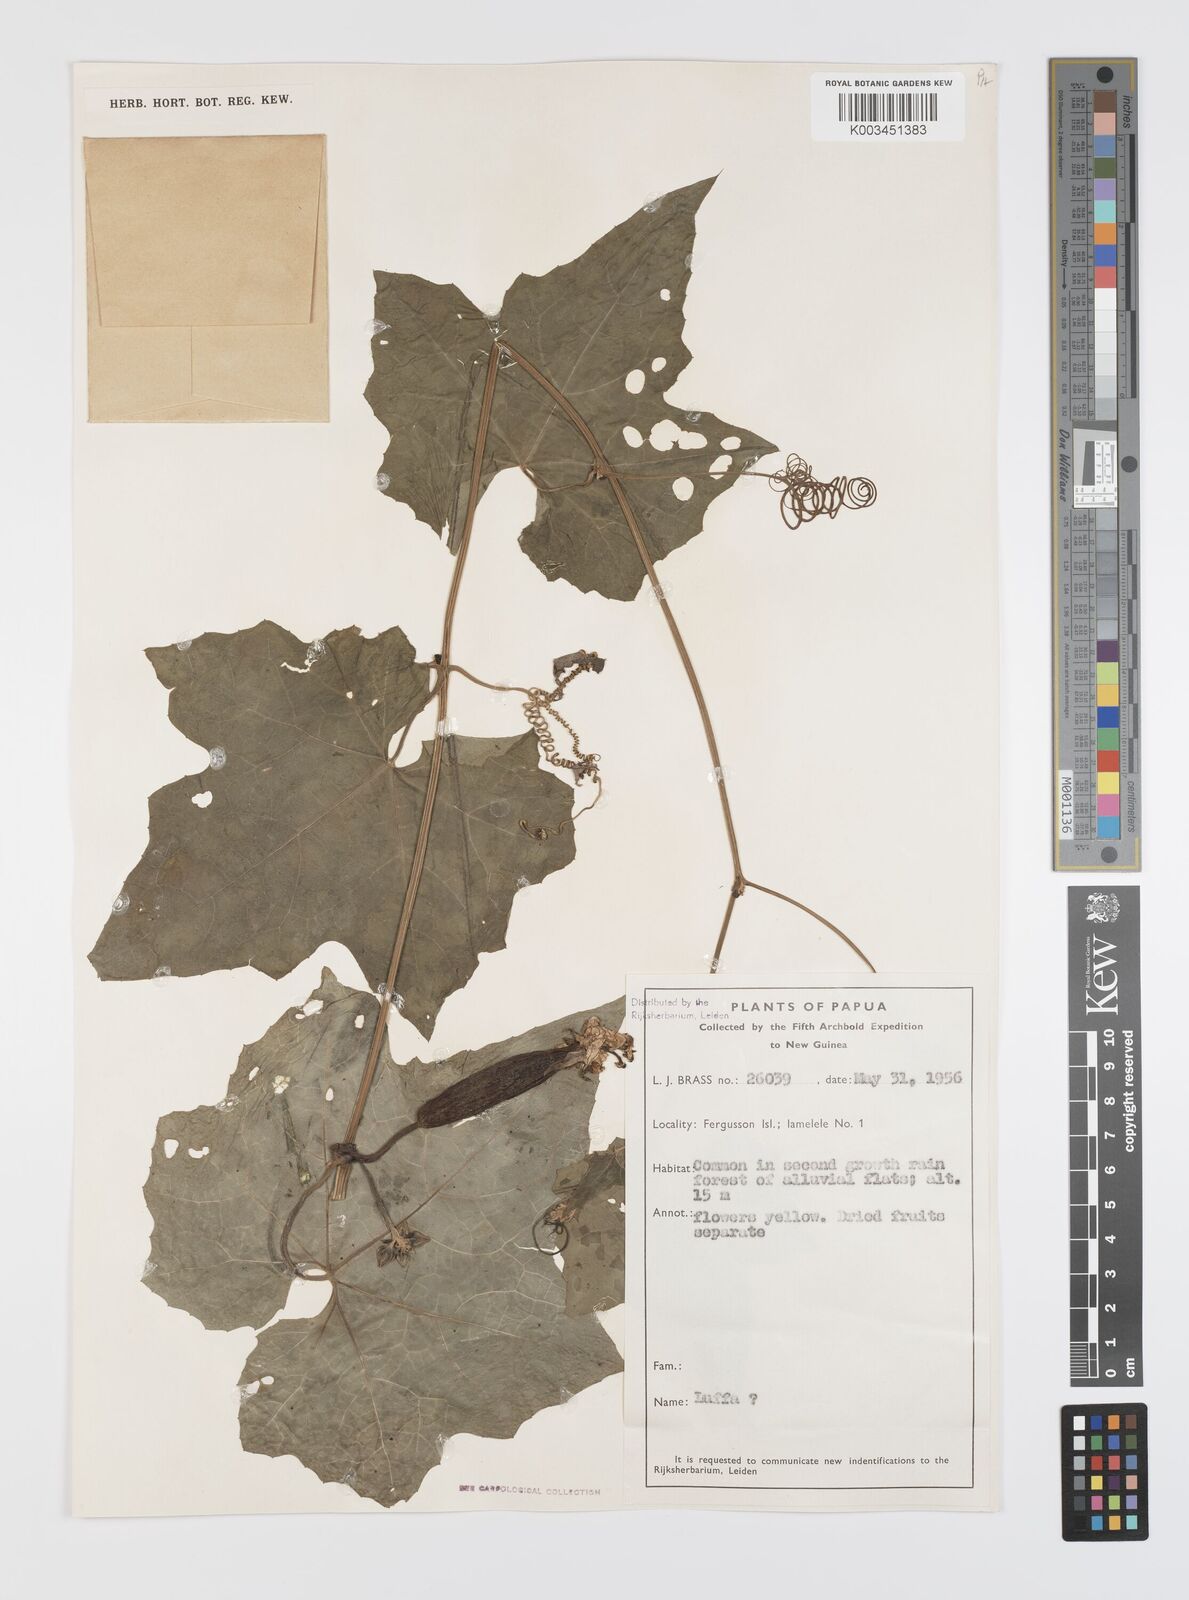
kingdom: Plantae
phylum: Tracheophyta
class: Magnoliopsida
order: Cucurbitales
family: Cucurbitaceae
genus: Luffa
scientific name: Luffa
